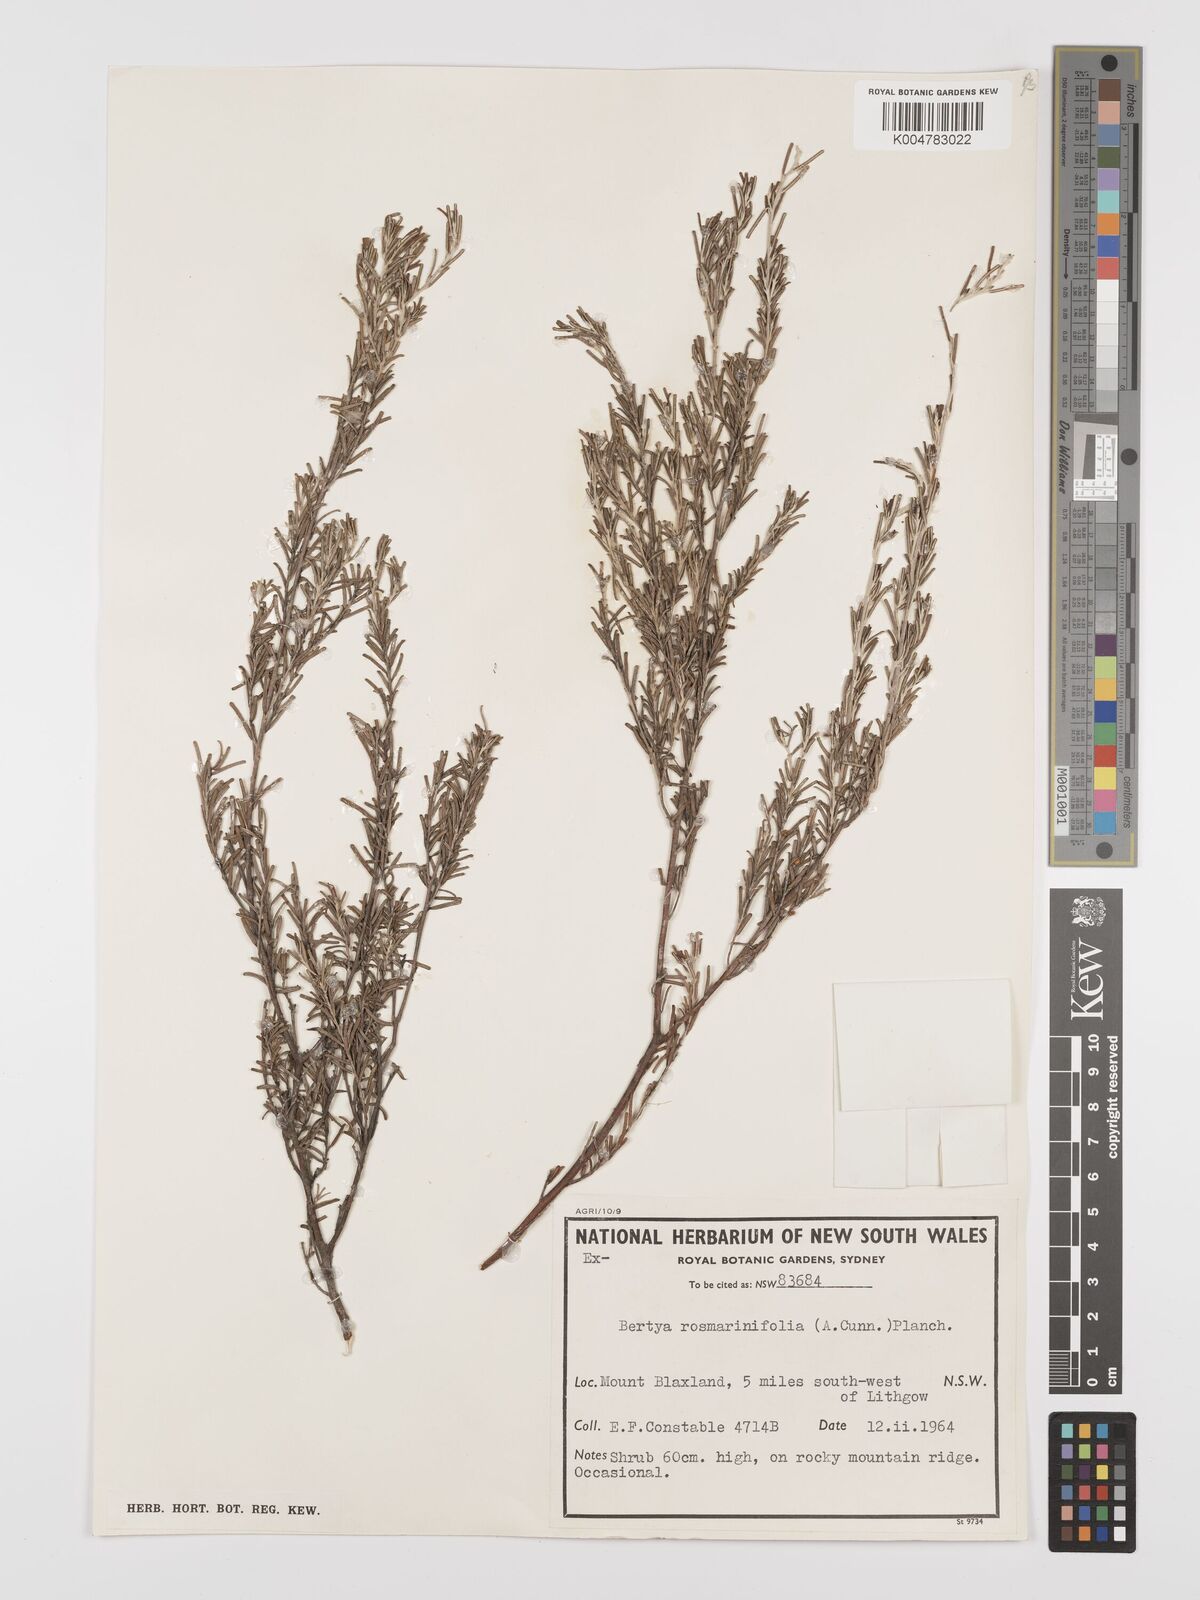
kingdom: Plantae
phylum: Tracheophyta
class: Magnoliopsida
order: Malpighiales
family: Euphorbiaceae
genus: Bertya
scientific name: Bertya rosmarinifolia
